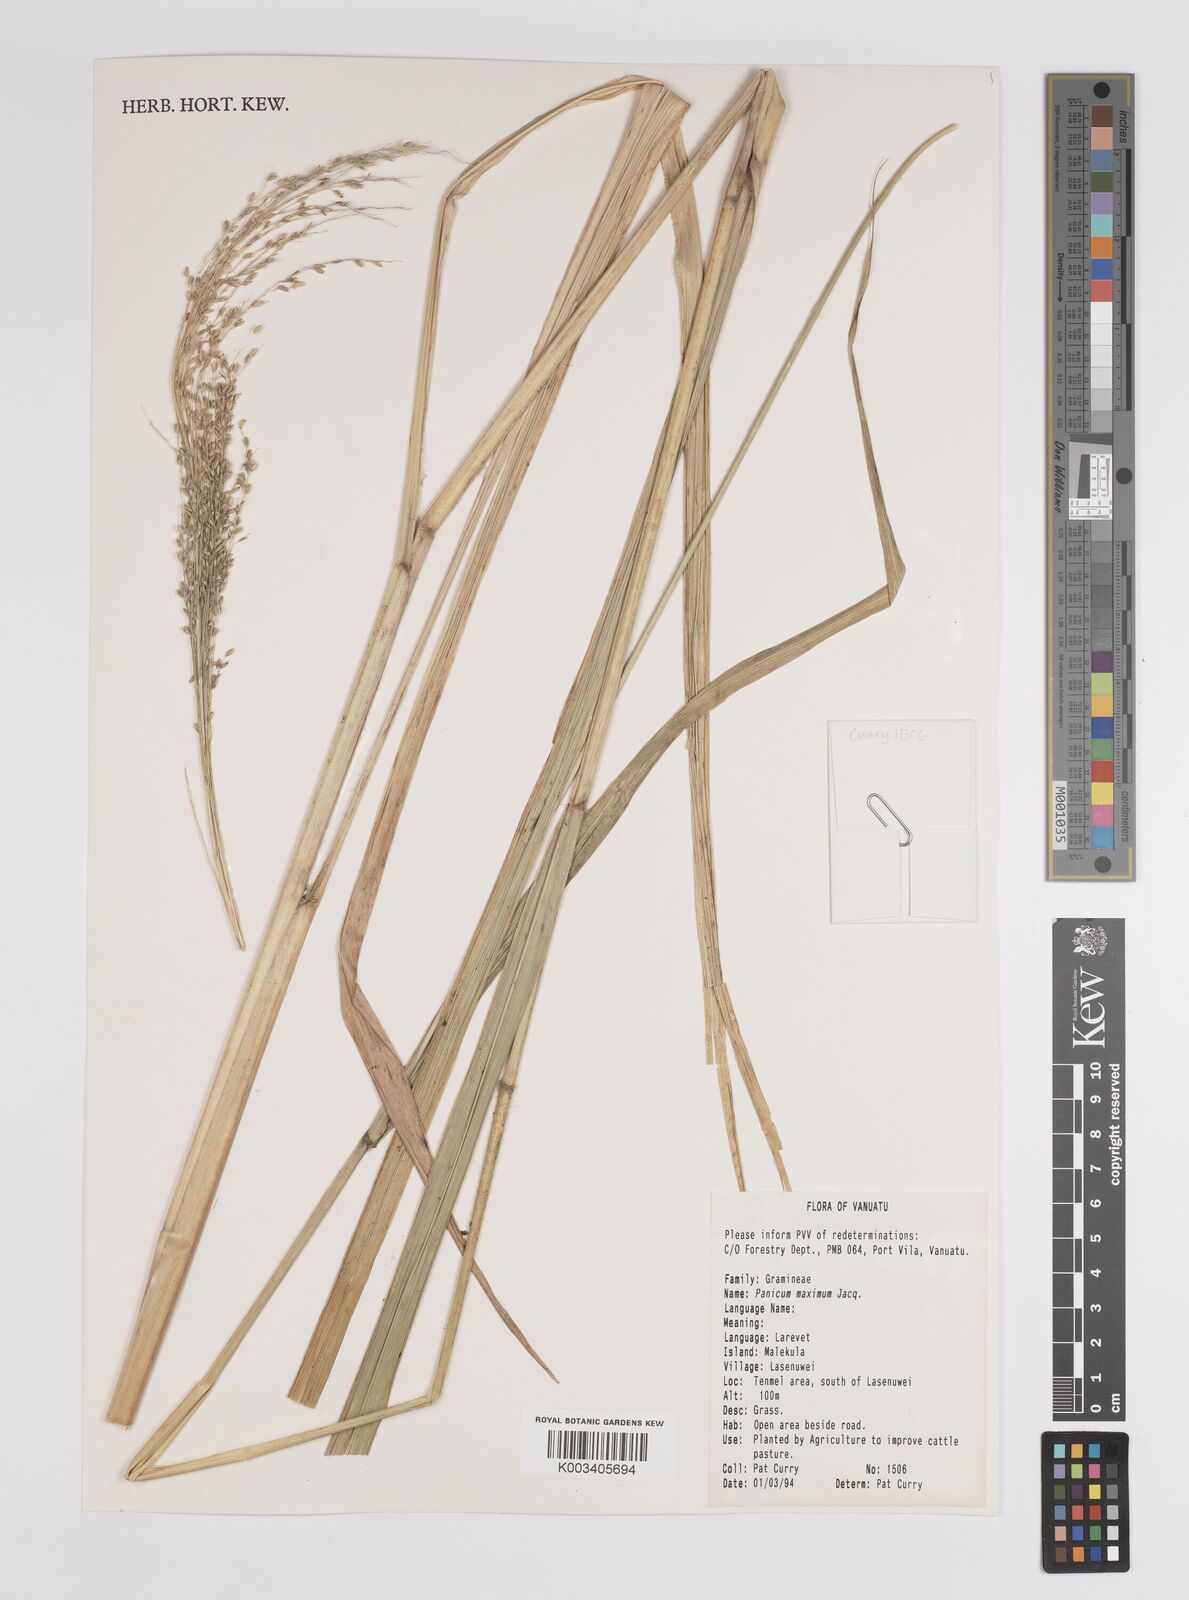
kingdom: Plantae
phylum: Tracheophyta
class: Liliopsida
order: Poales
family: Poaceae
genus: Megathyrsus
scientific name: Megathyrsus maximus
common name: Guineagrass
